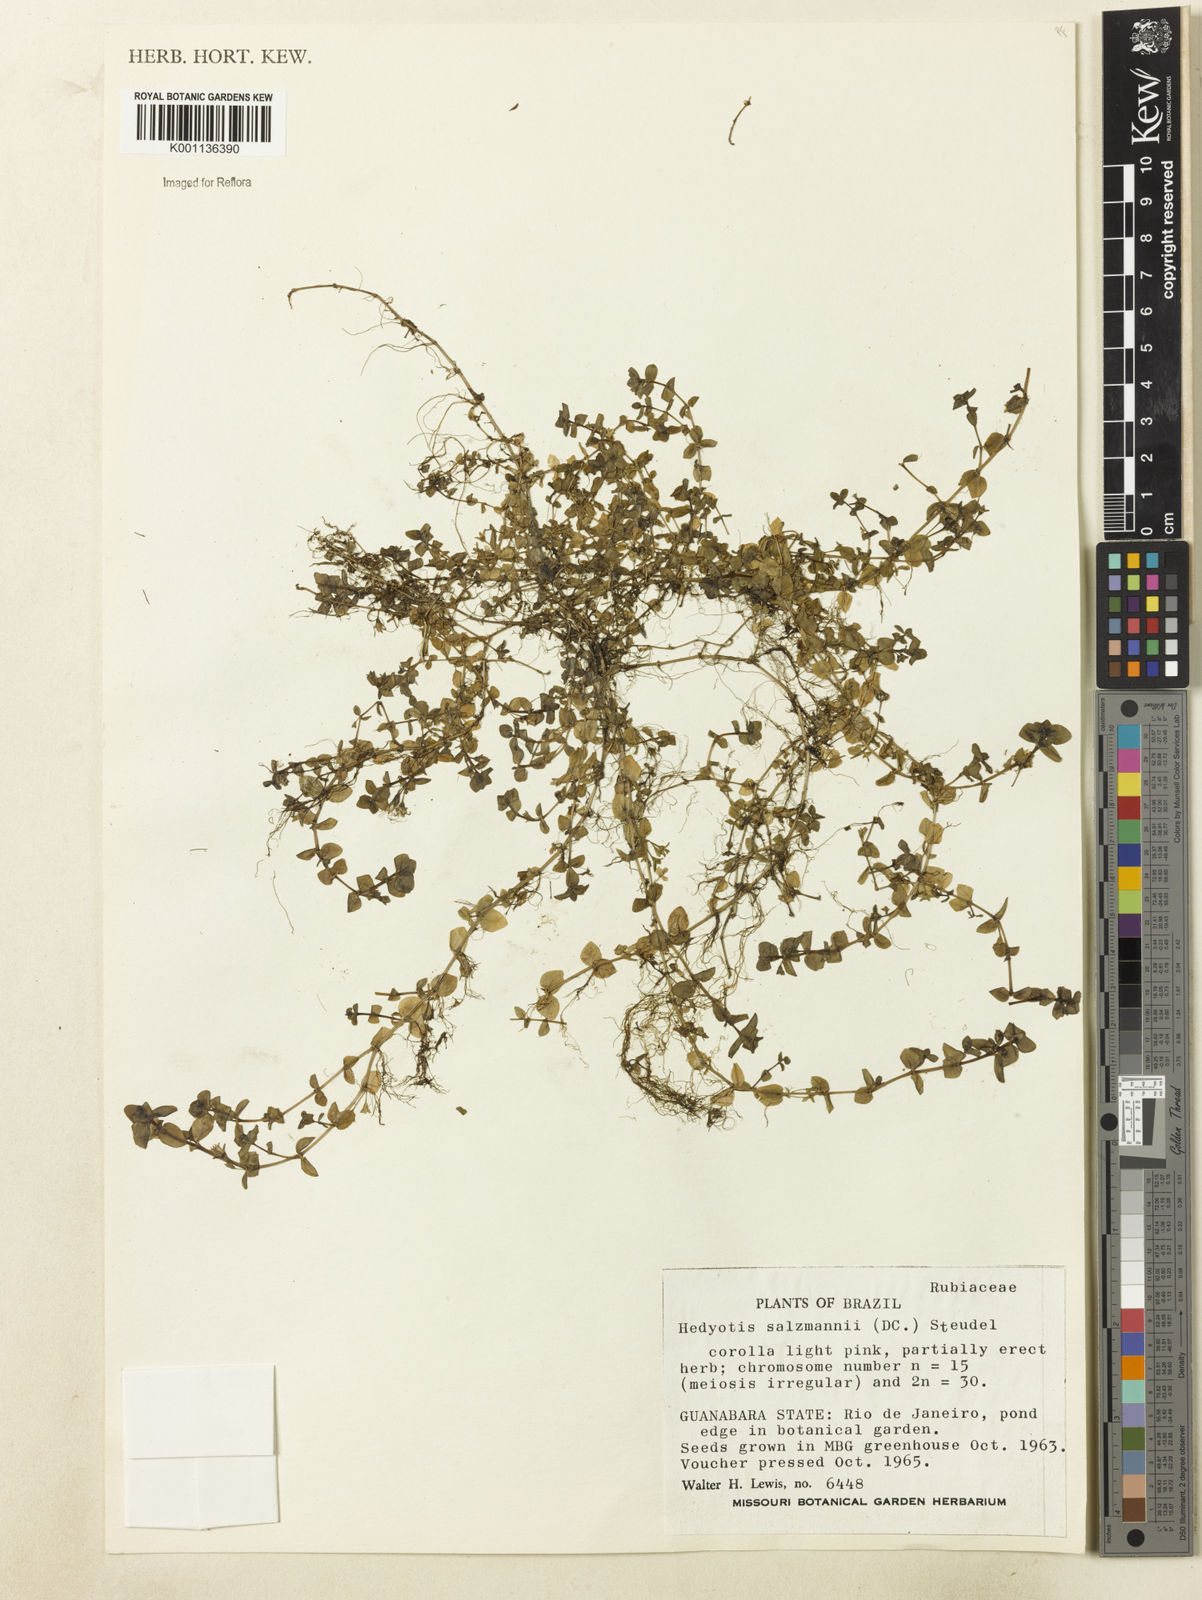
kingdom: Plantae
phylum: Tracheophyta
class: Magnoliopsida
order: Gentianales
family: Rubiaceae
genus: Oldenlandia
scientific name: Oldenlandia salzmannii
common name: Salzmann's mille graines
